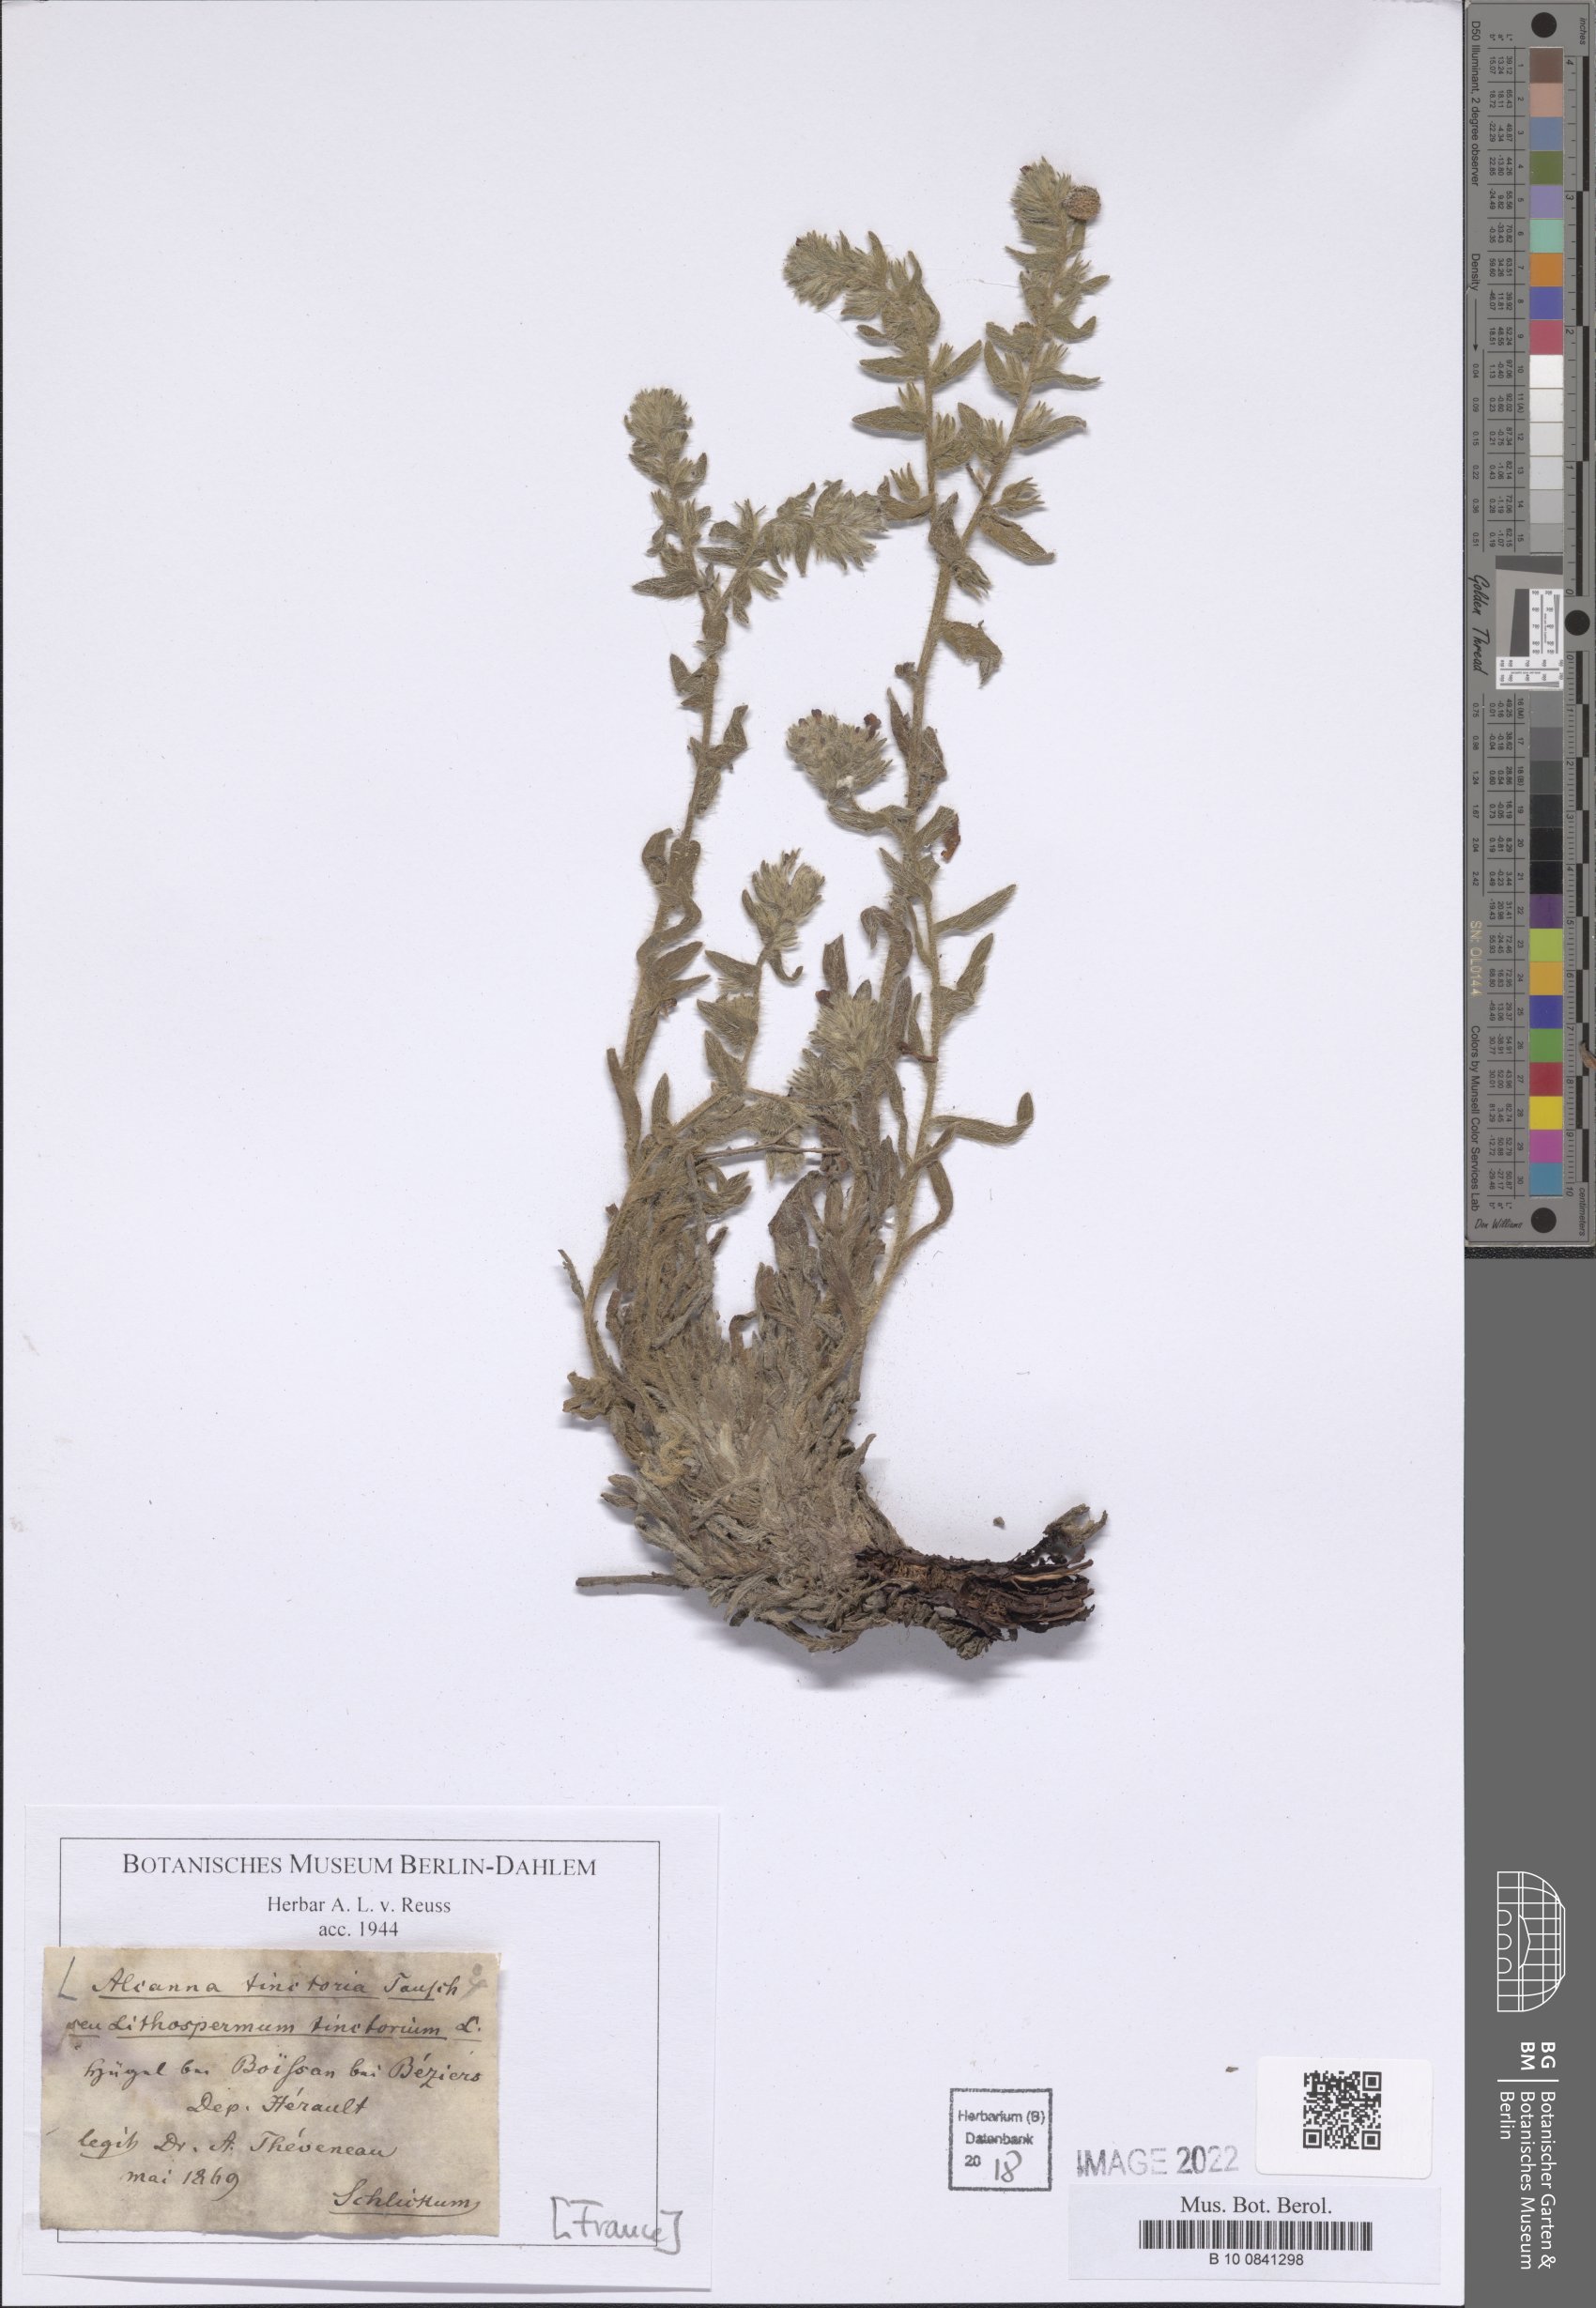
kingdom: Plantae
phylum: Tracheophyta
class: Magnoliopsida
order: Boraginales
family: Boraginaceae
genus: Alkanna
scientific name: Alkanna tinctoria
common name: Dyer's-alkanet
